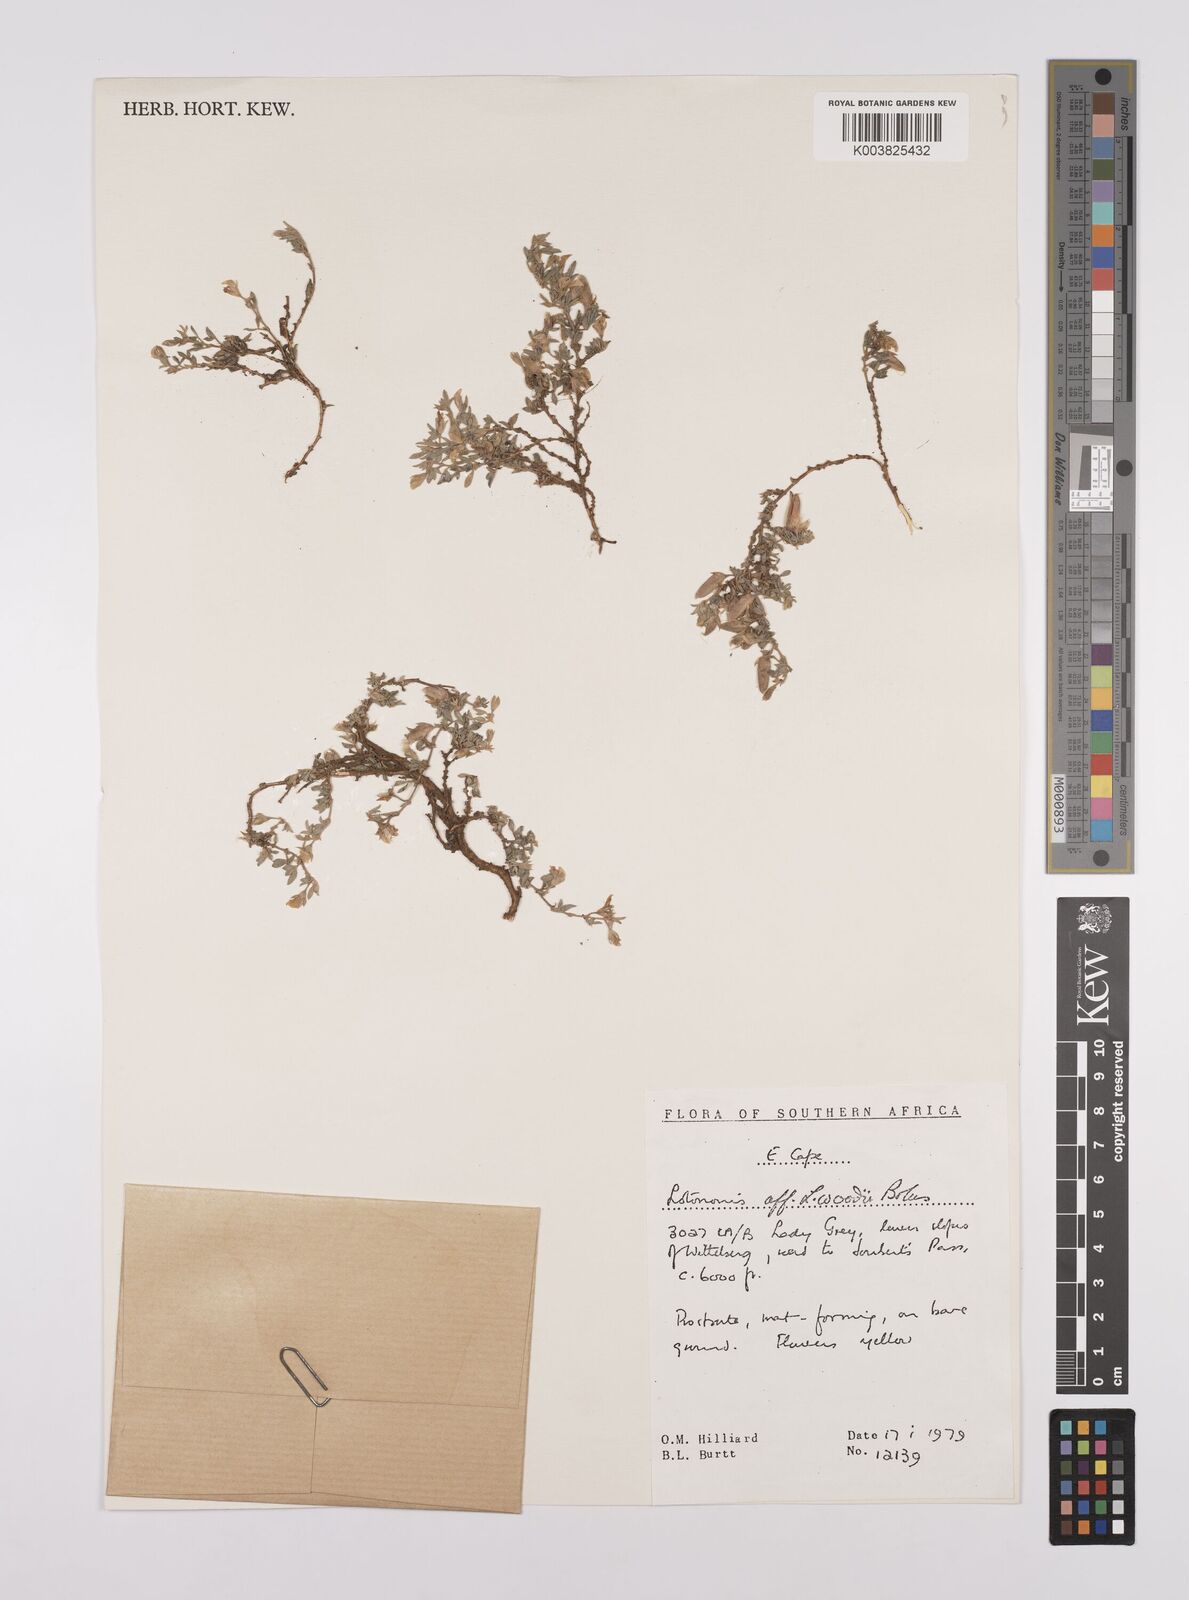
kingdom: Plantae
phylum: Tracheophyta
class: Magnoliopsida
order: Fabales
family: Fabaceae
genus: Lotononis
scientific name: Lotononis laxa
